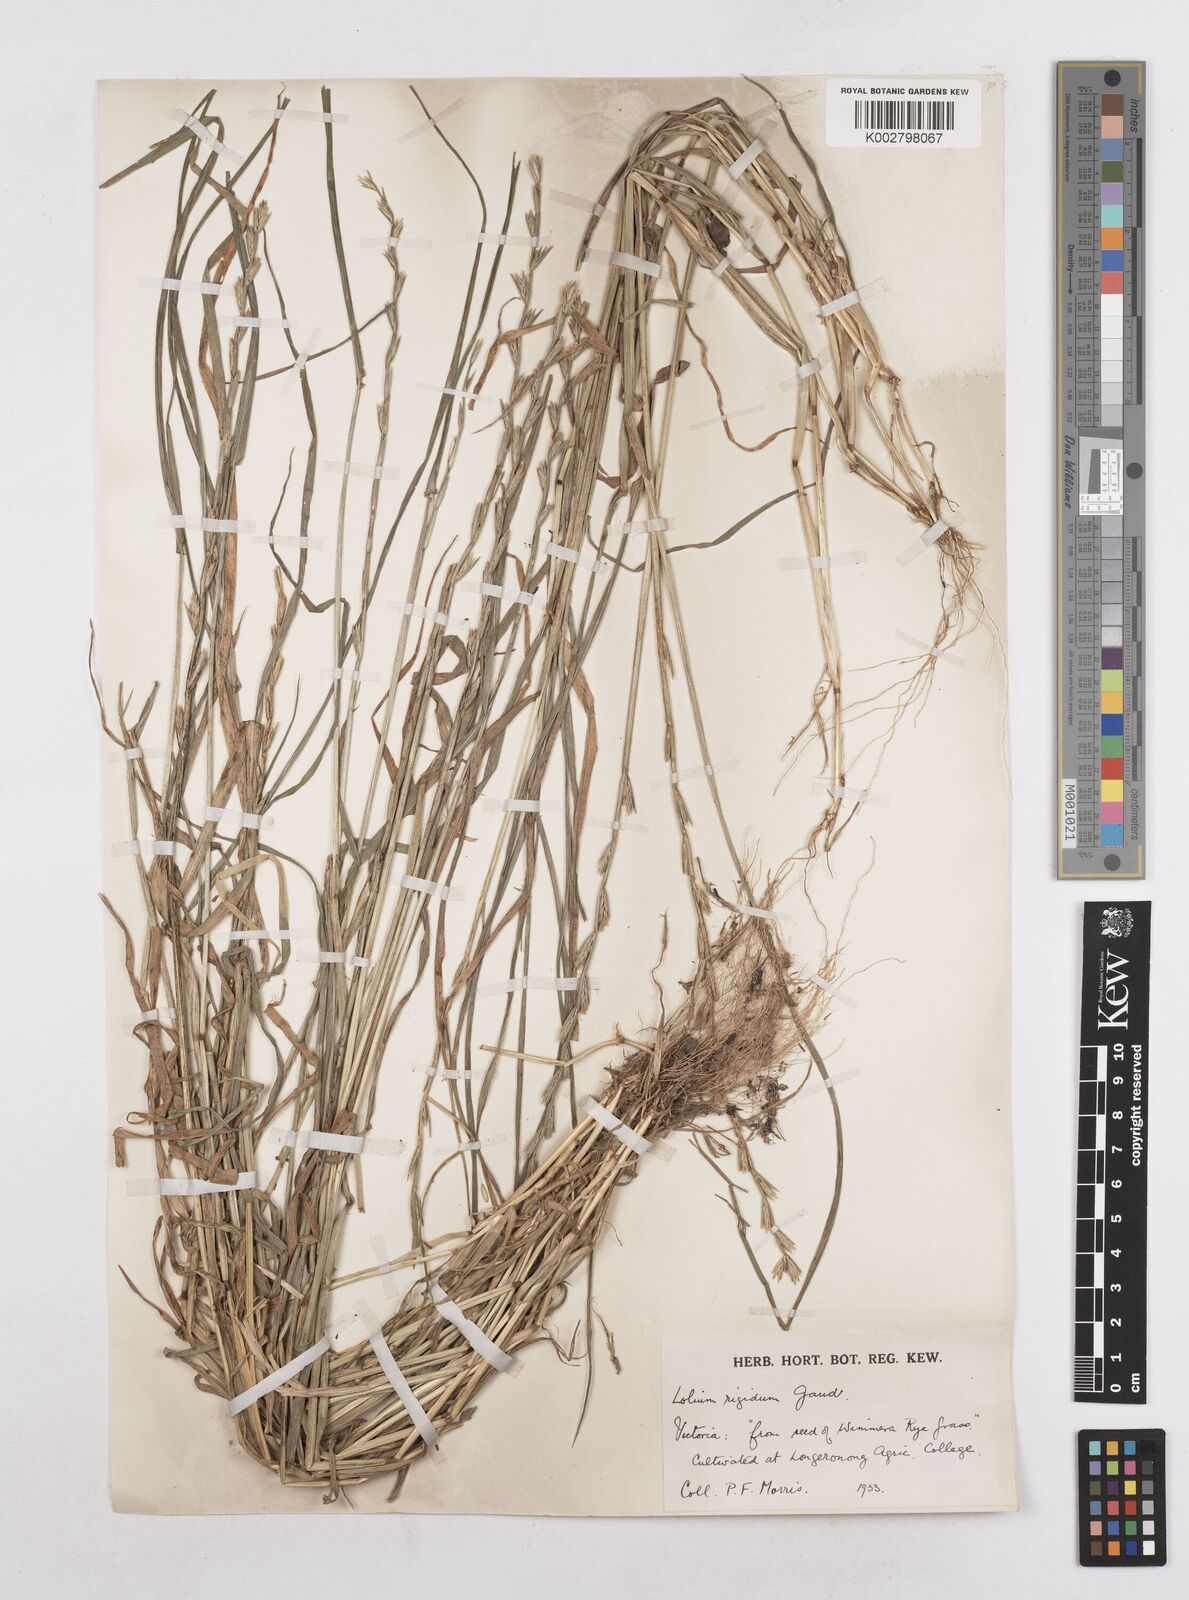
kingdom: Plantae
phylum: Tracheophyta
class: Liliopsida
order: Poales
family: Poaceae
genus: Lolium
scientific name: Lolium rigidum
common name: Wimmera ryegrass
